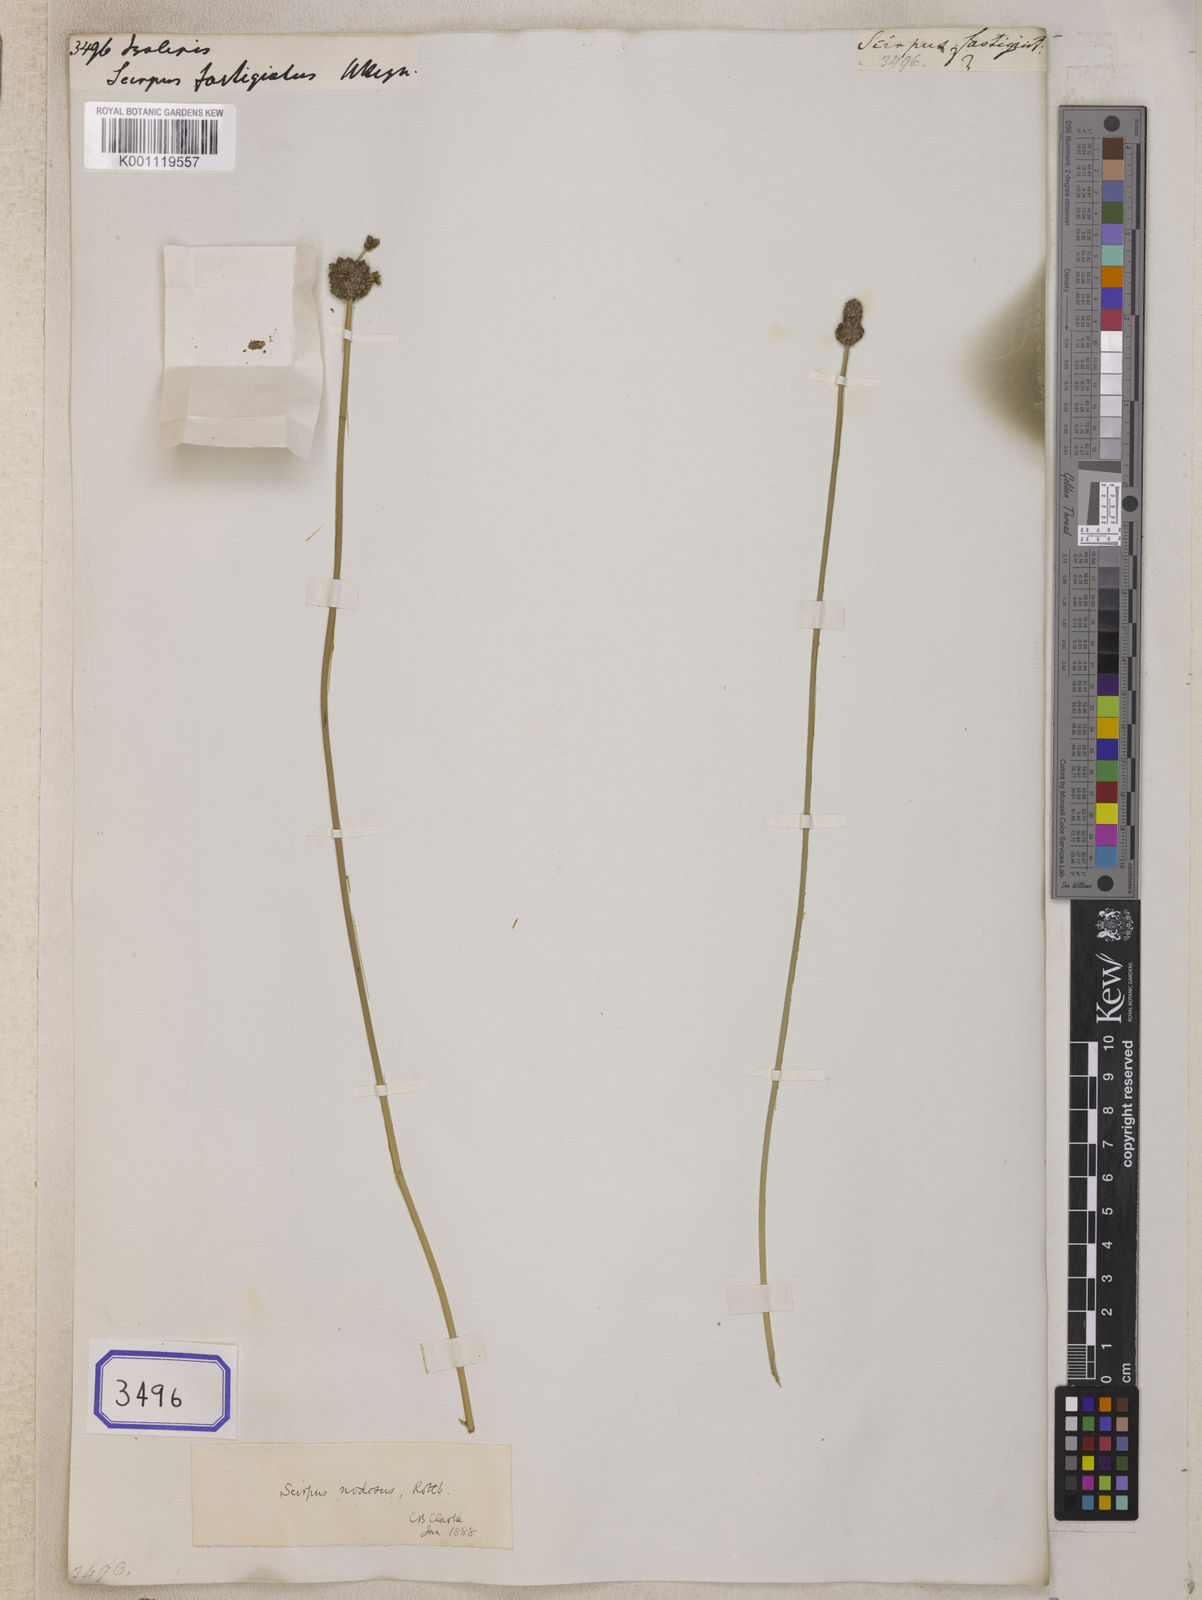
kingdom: Plantae
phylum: Tracheophyta
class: Liliopsida
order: Poales
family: Cyperaceae
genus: Isolepis
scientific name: Isolepis
